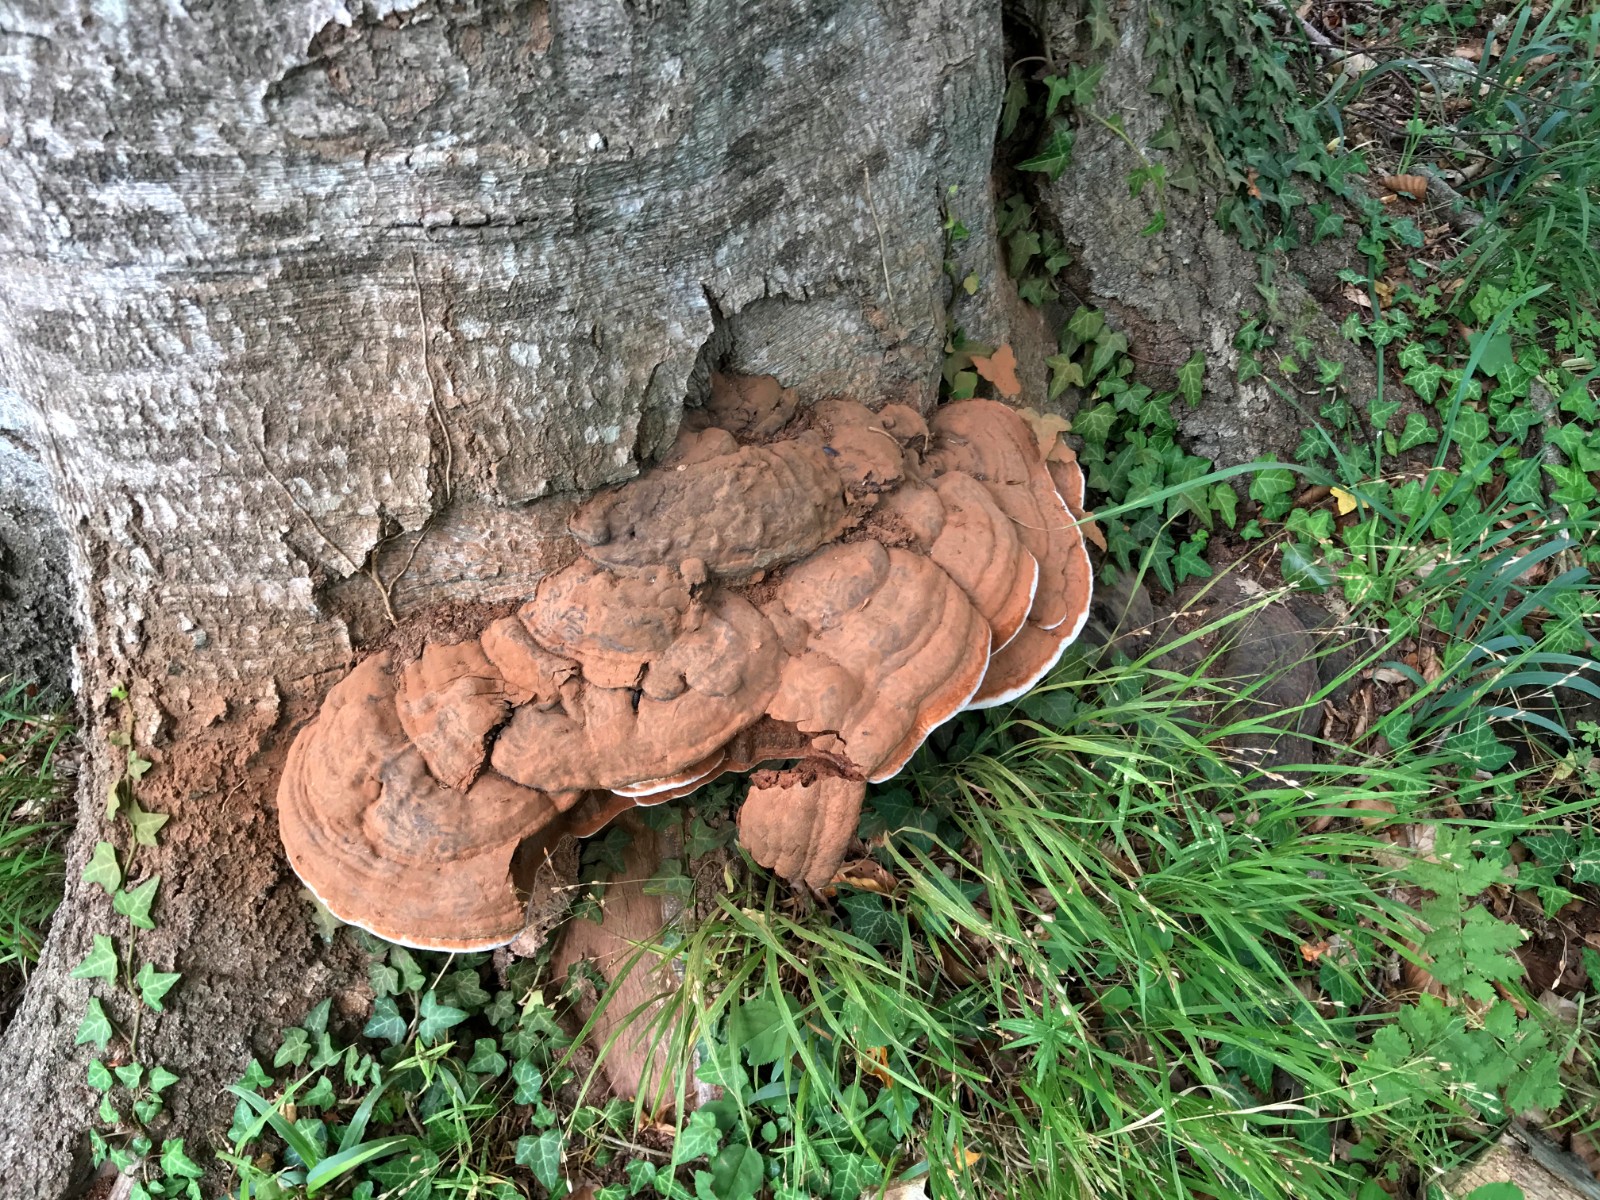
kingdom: Fungi
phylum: Basidiomycota
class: Agaricomycetes
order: Polyporales
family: Polyporaceae
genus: Ganoderma
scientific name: Ganoderma pfeifferi
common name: kobberrød lakporesvamp
